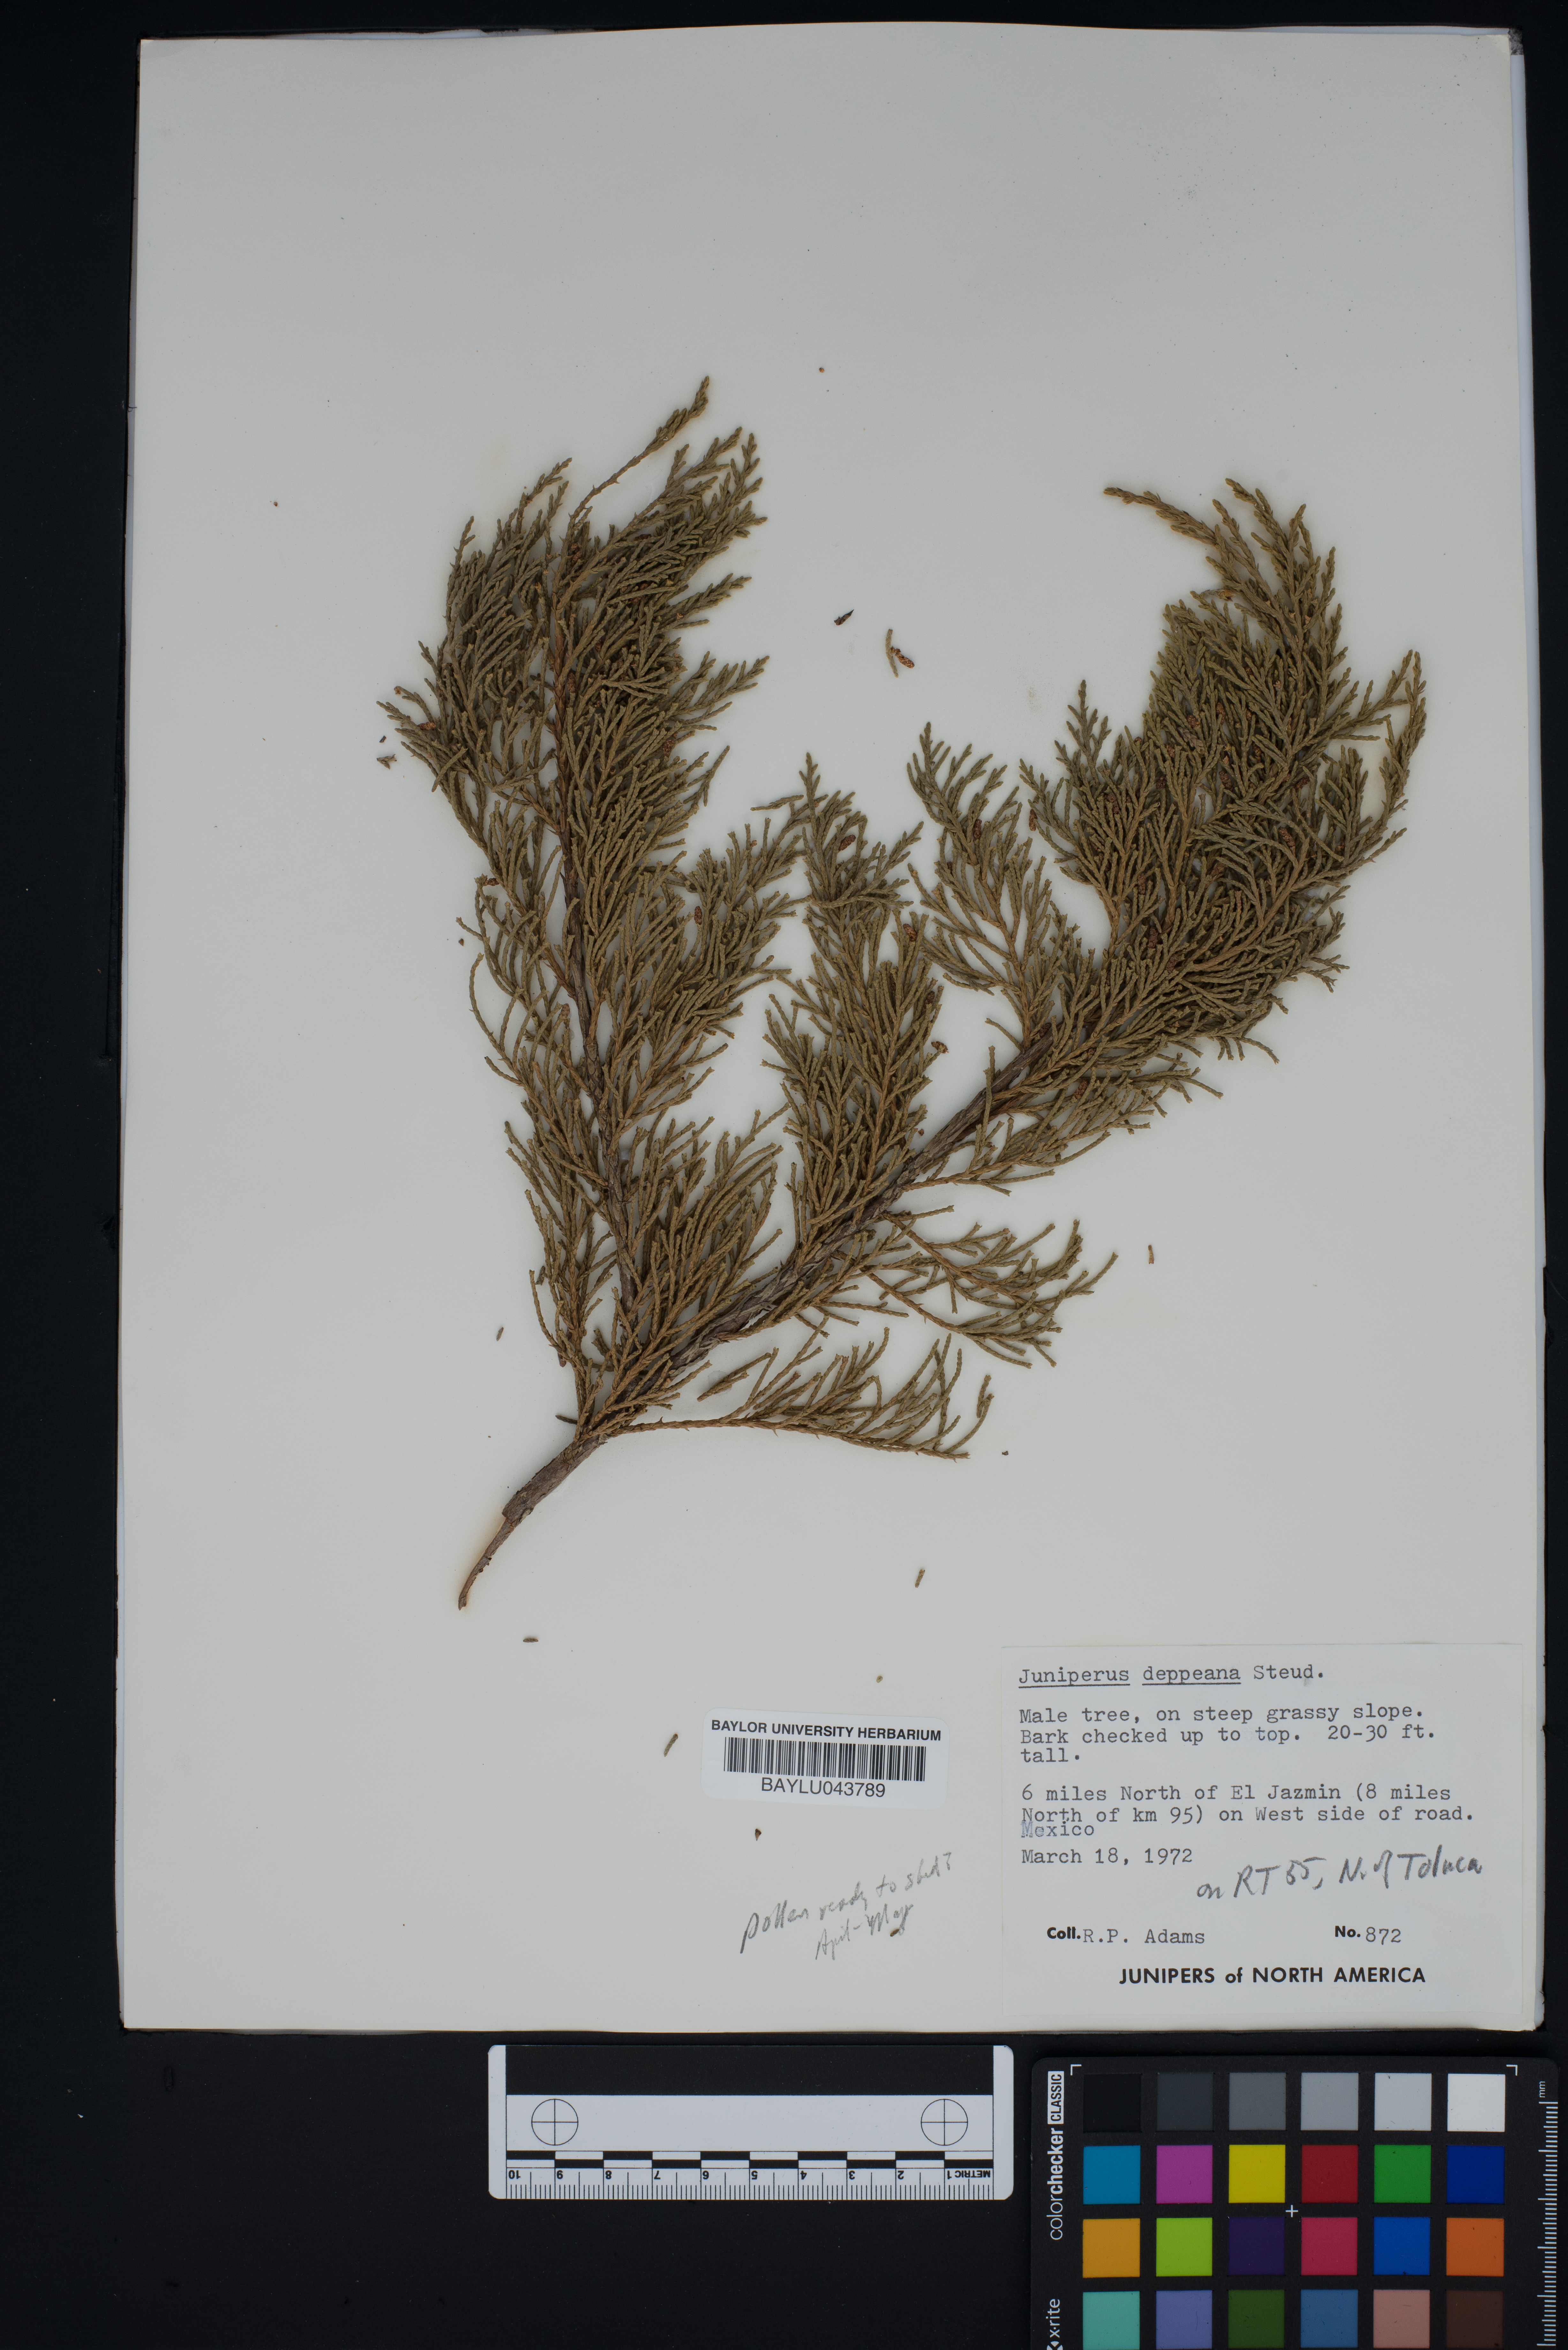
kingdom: Plantae
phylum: Tracheophyta
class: Pinopsida
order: Pinales
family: Cupressaceae
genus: Juniperus
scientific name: Juniperus deppeana
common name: Alligator juniper
